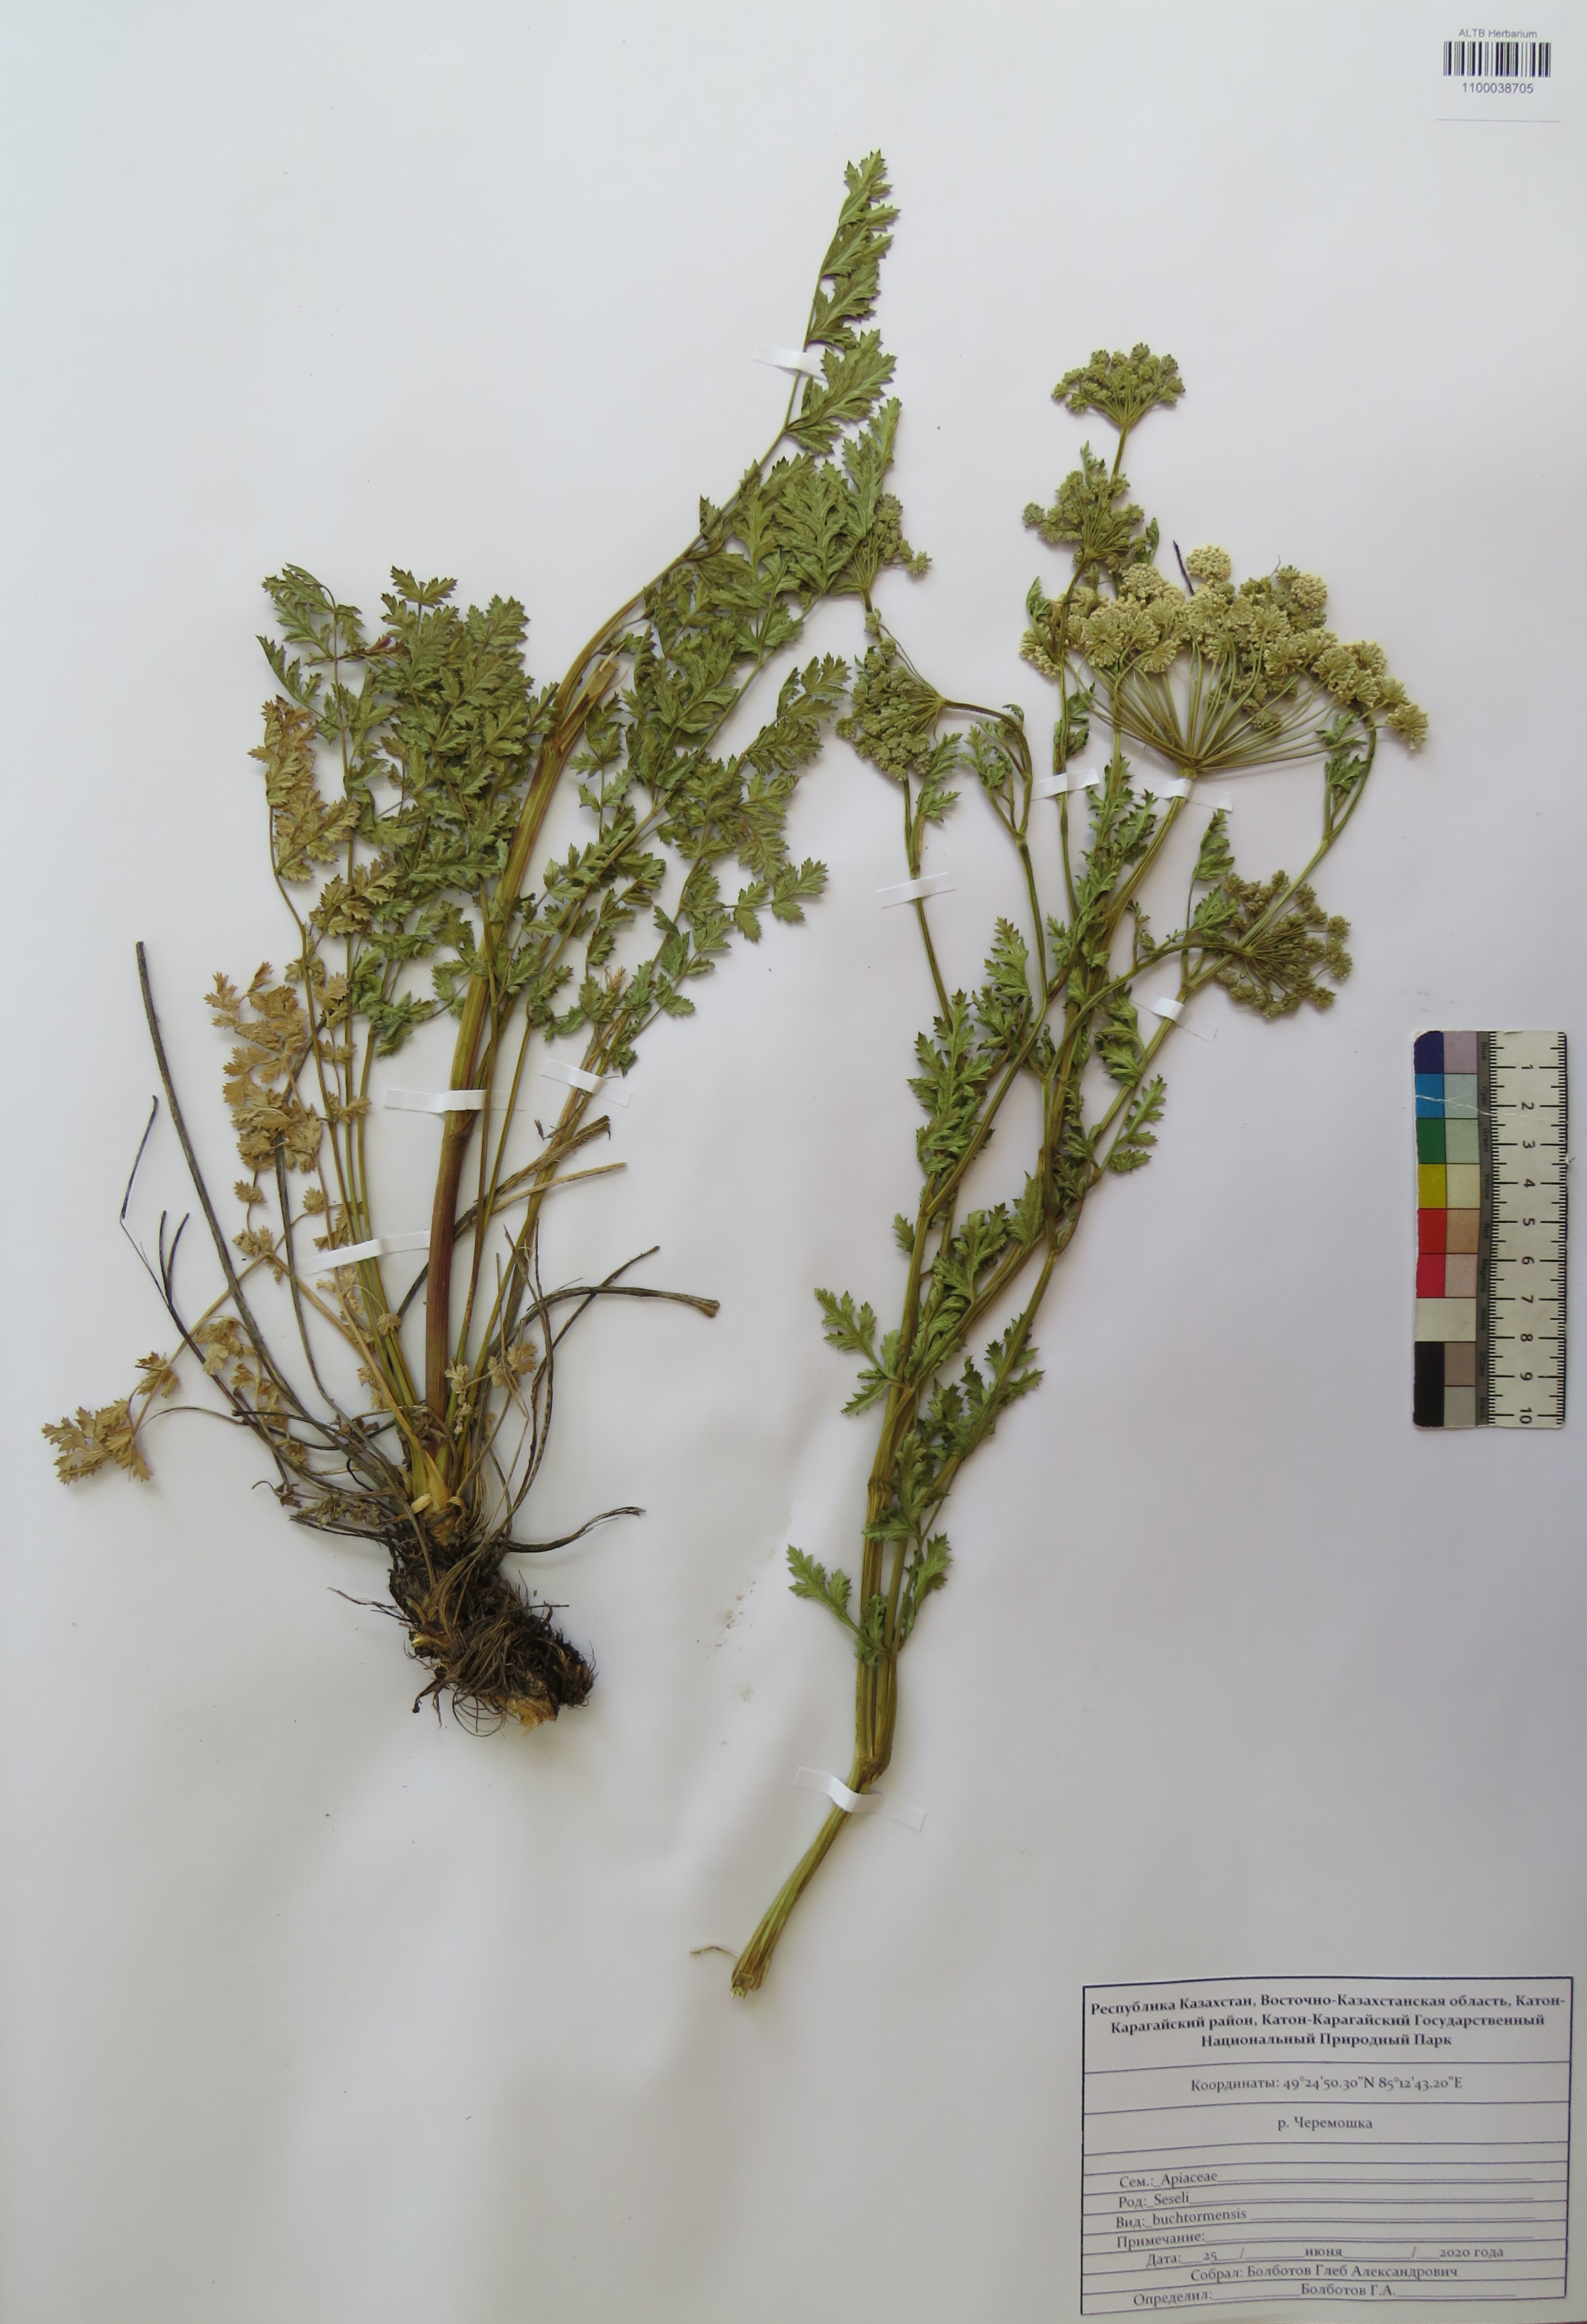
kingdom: Plantae
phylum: Tracheophyta
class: Magnoliopsida
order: Apiales
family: Apiaceae
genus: Seseli
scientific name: Seseli buchtormense
